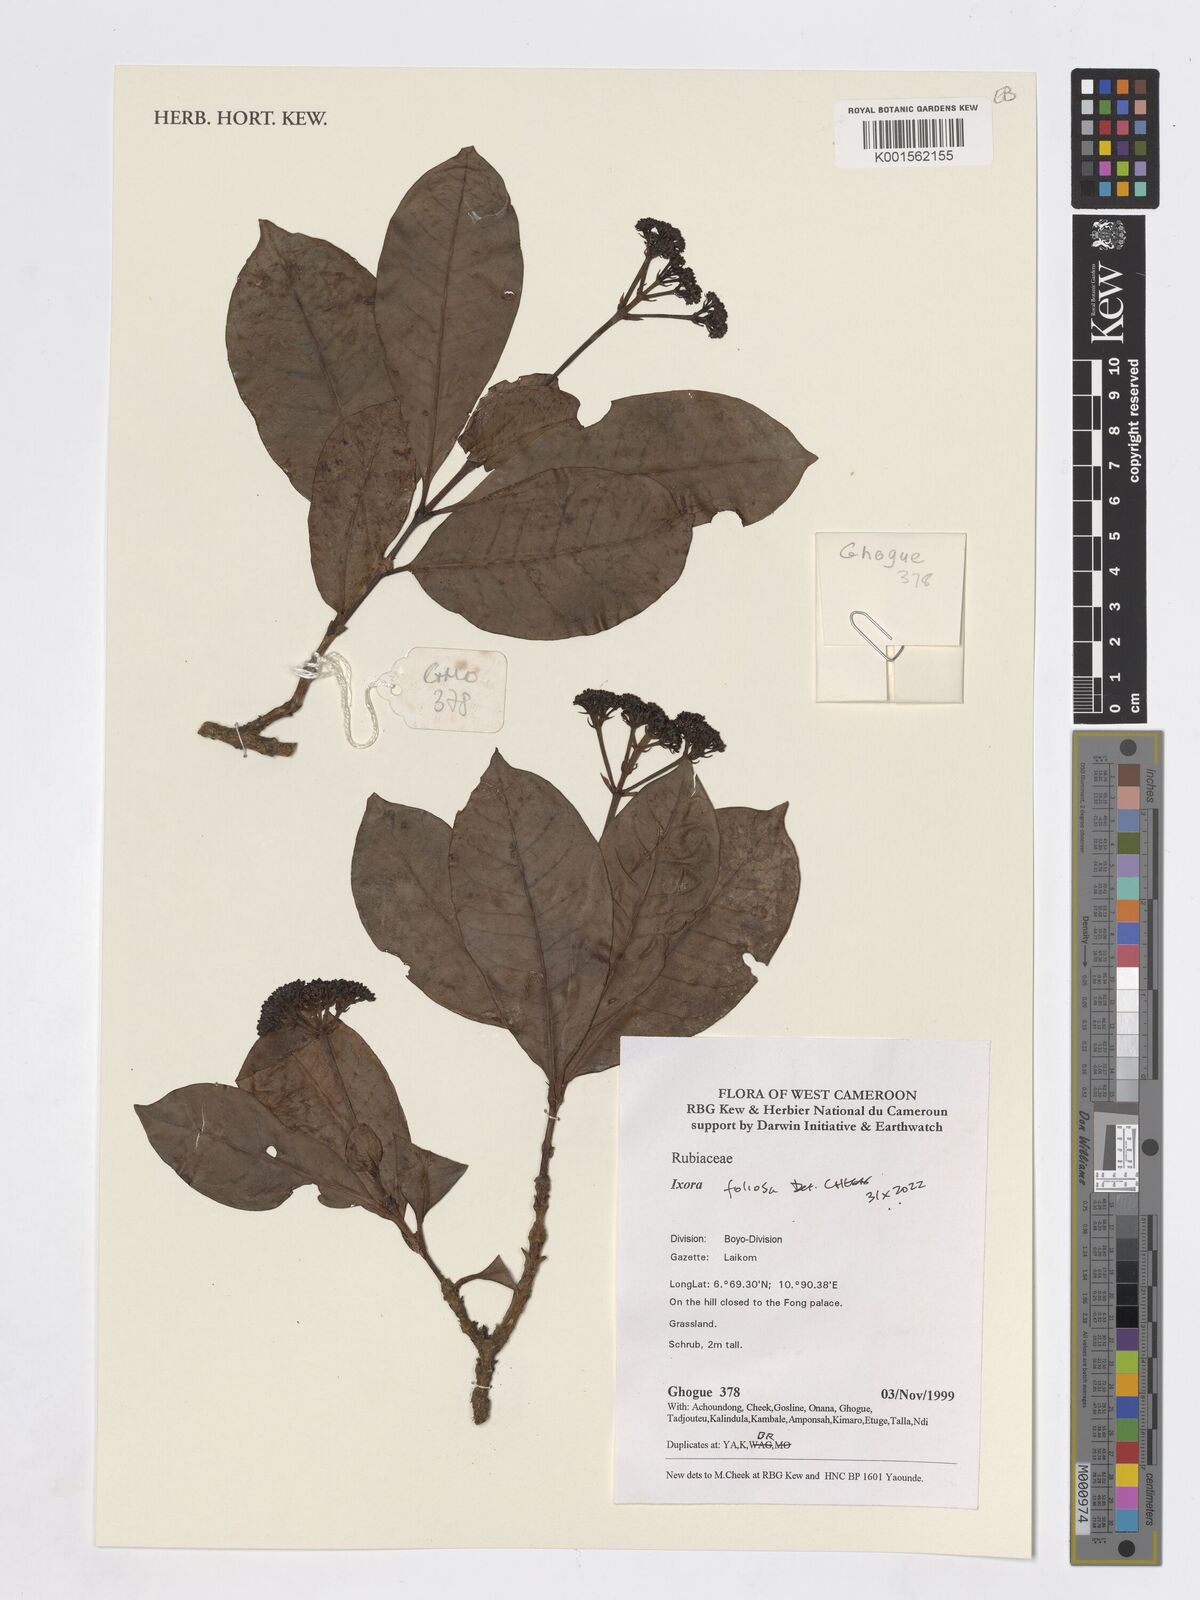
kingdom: Plantae
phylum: Tracheophyta
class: Magnoliopsida
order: Gentianales
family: Rubiaceae
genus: Ixora
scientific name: Ixora foliosa
